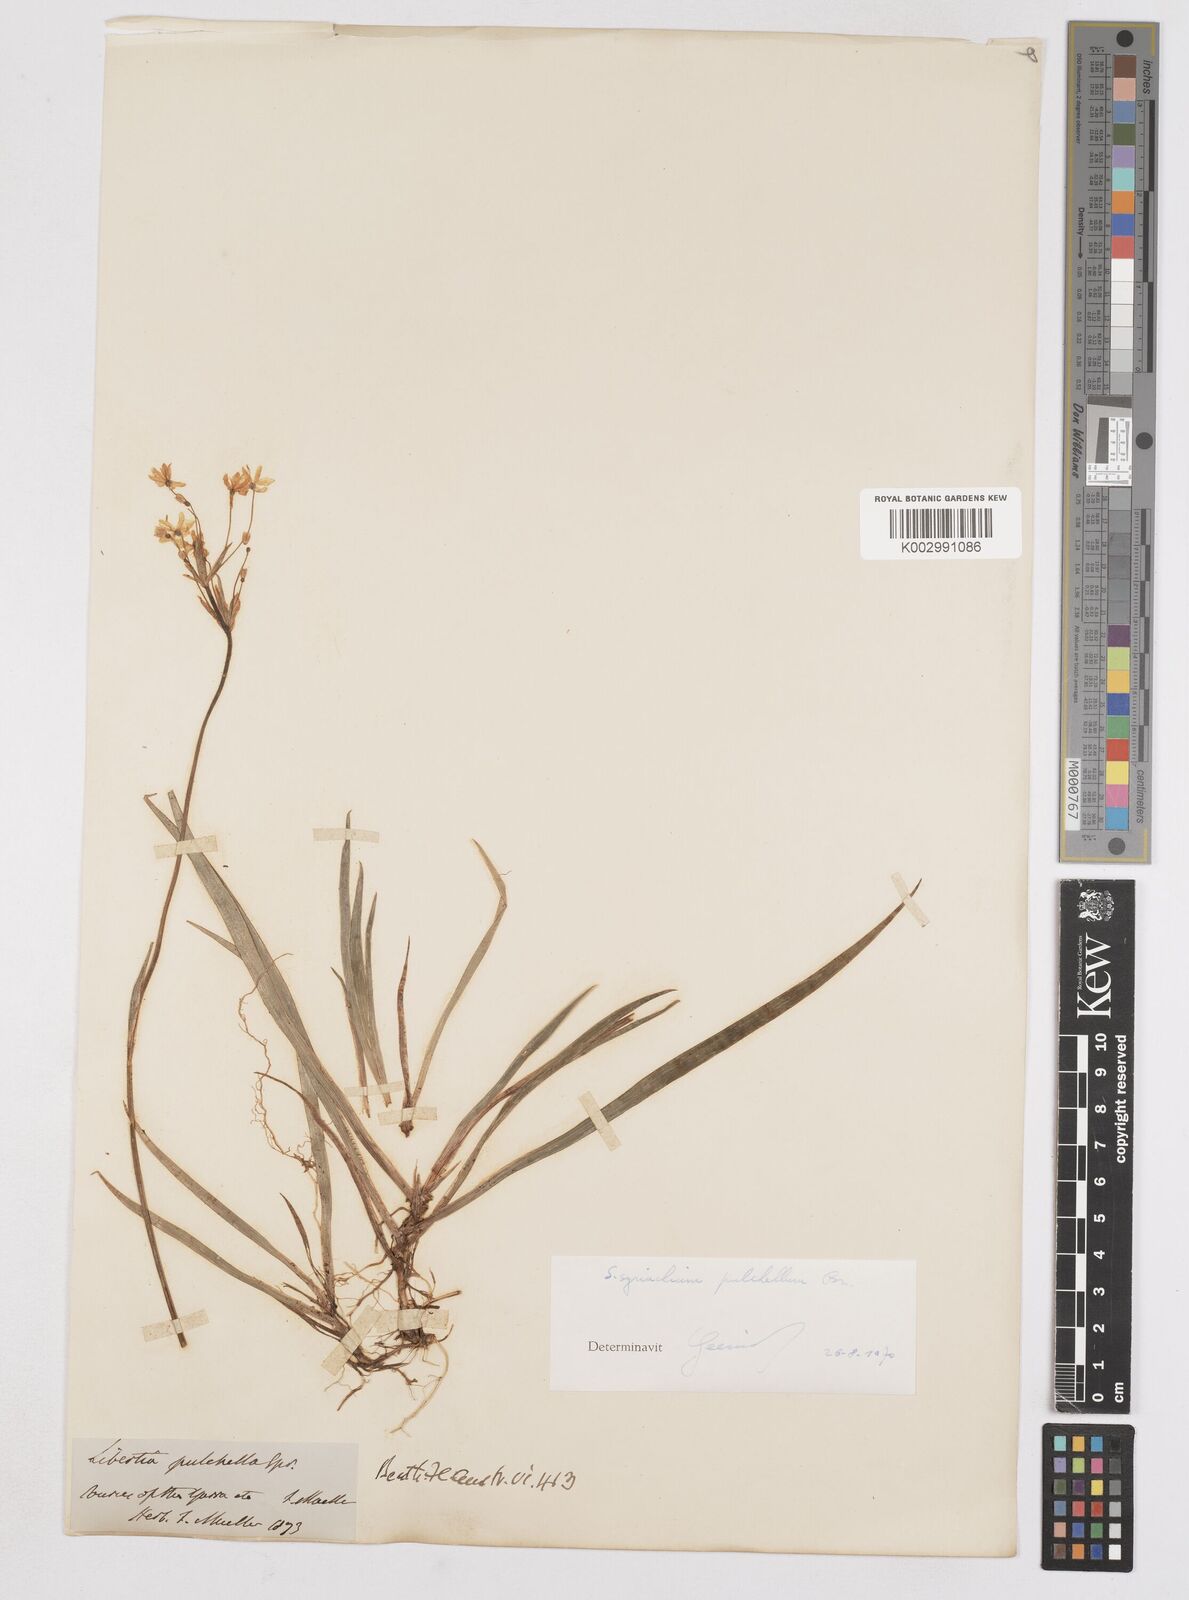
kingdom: Plantae
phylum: Tracheophyta
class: Liliopsida
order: Asparagales
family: Iridaceae
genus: Libertia
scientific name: Libertia pulchella
